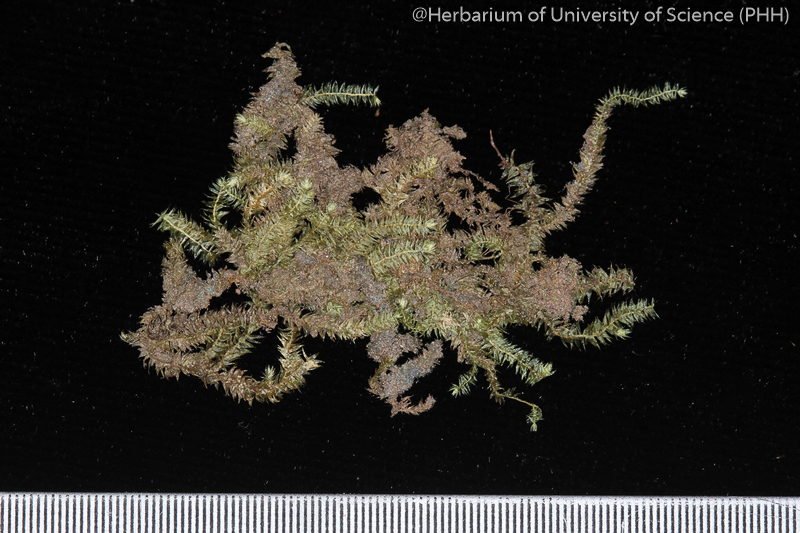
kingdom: Plantae
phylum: Bryophyta
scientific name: Bryophyta
